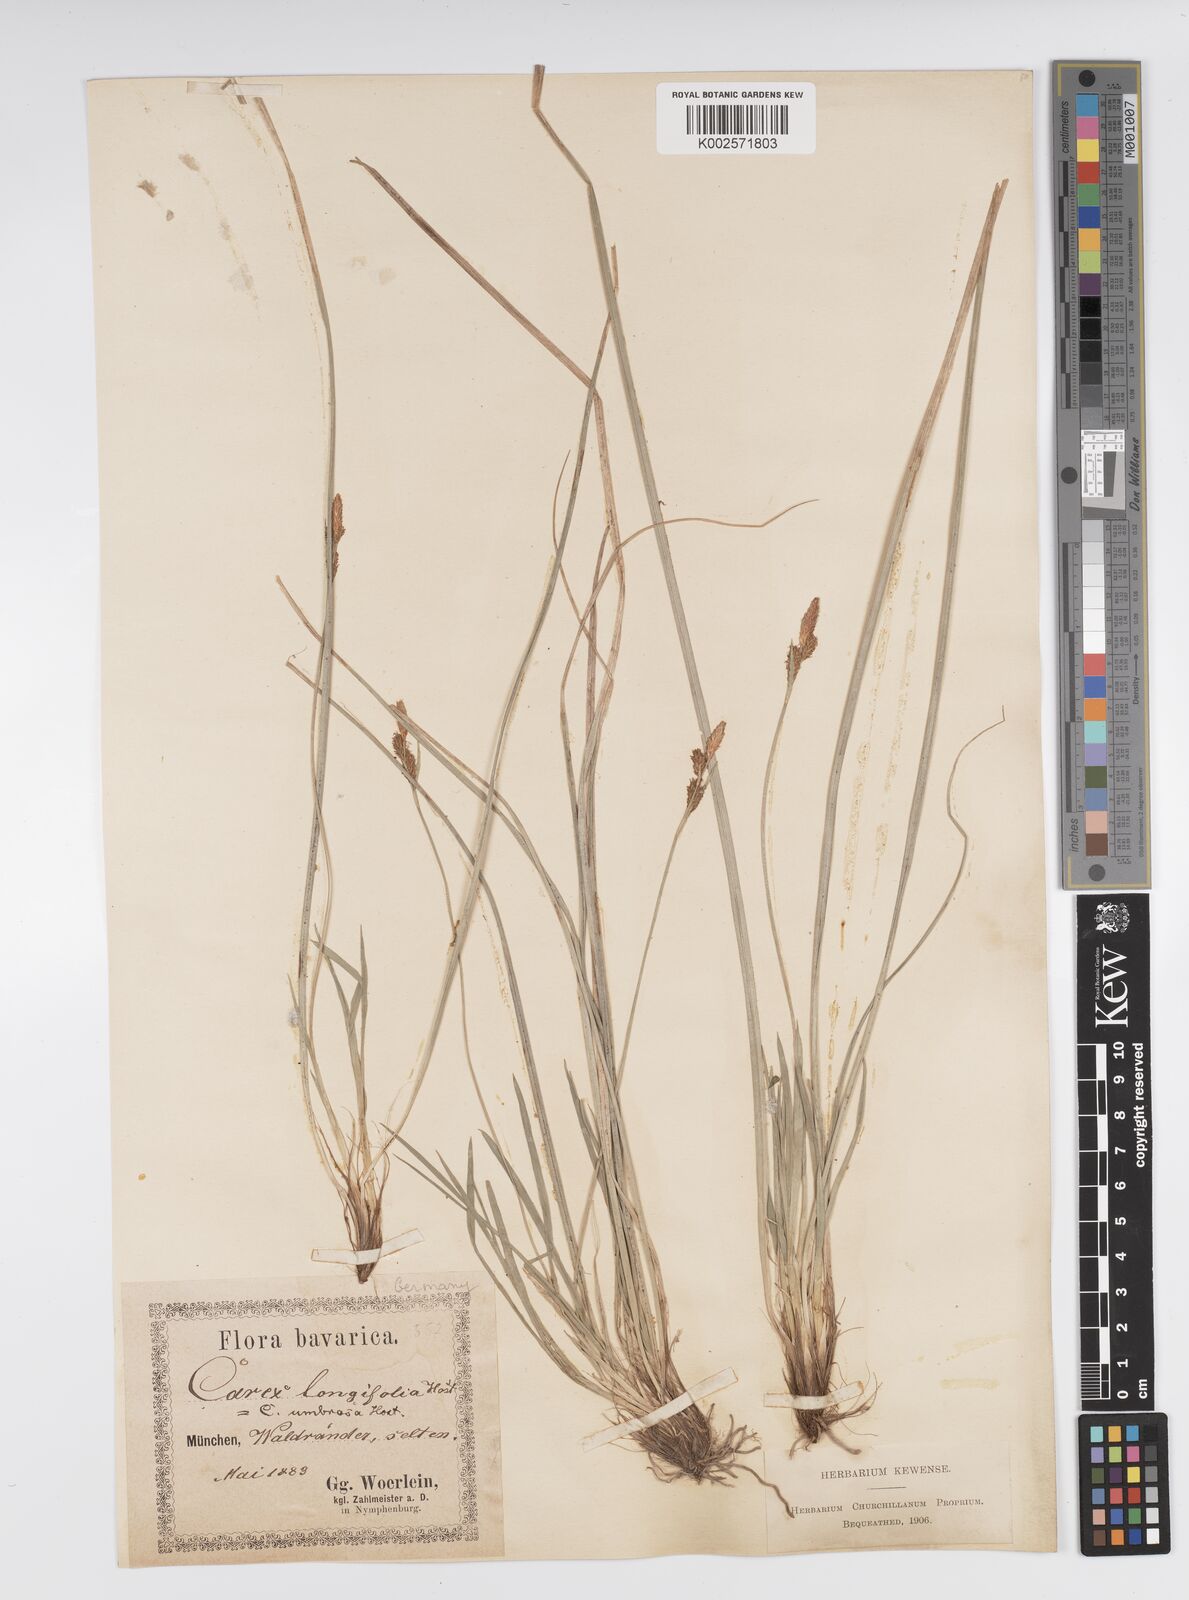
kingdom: Plantae
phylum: Tracheophyta
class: Liliopsida
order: Poales
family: Cyperaceae
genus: Carex
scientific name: Carex umbrosa
